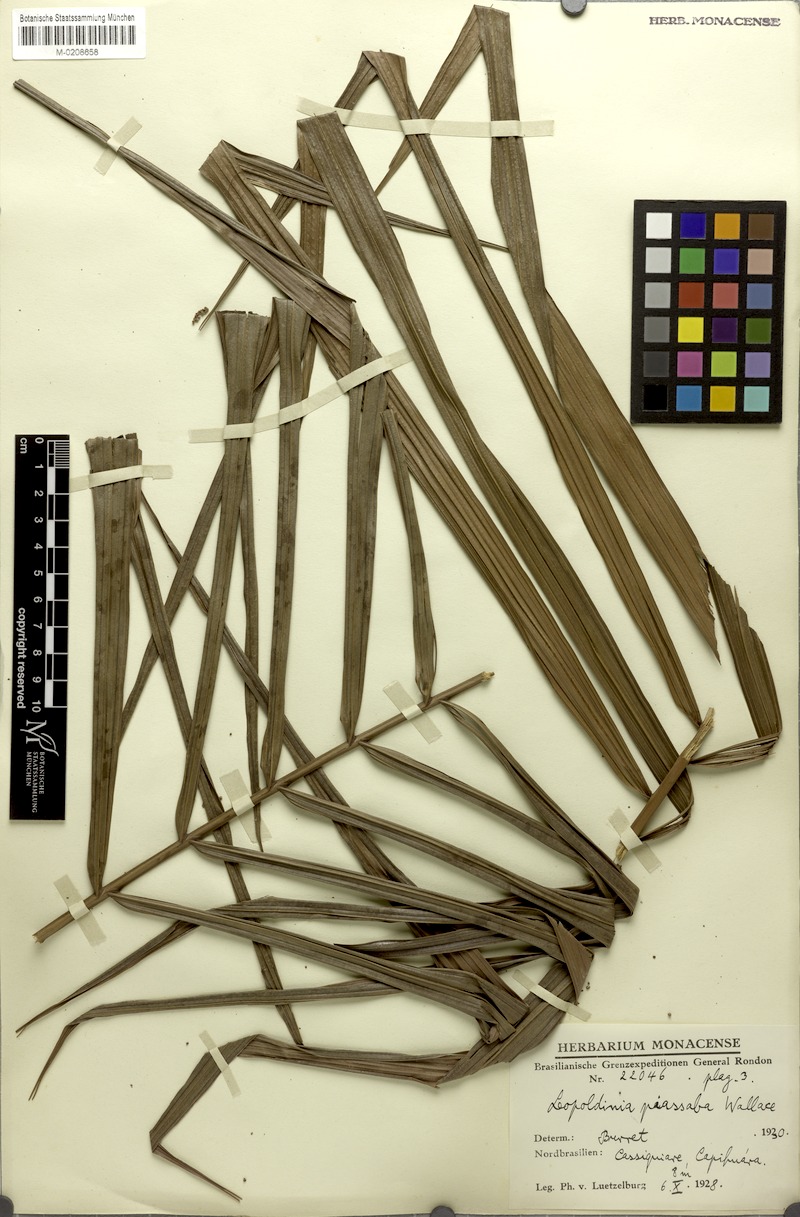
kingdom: Plantae
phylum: Tracheophyta
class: Liliopsida
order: Arecales
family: Arecaceae
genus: Leopoldinia
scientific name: Leopoldinia piassaba
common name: Piassaba
